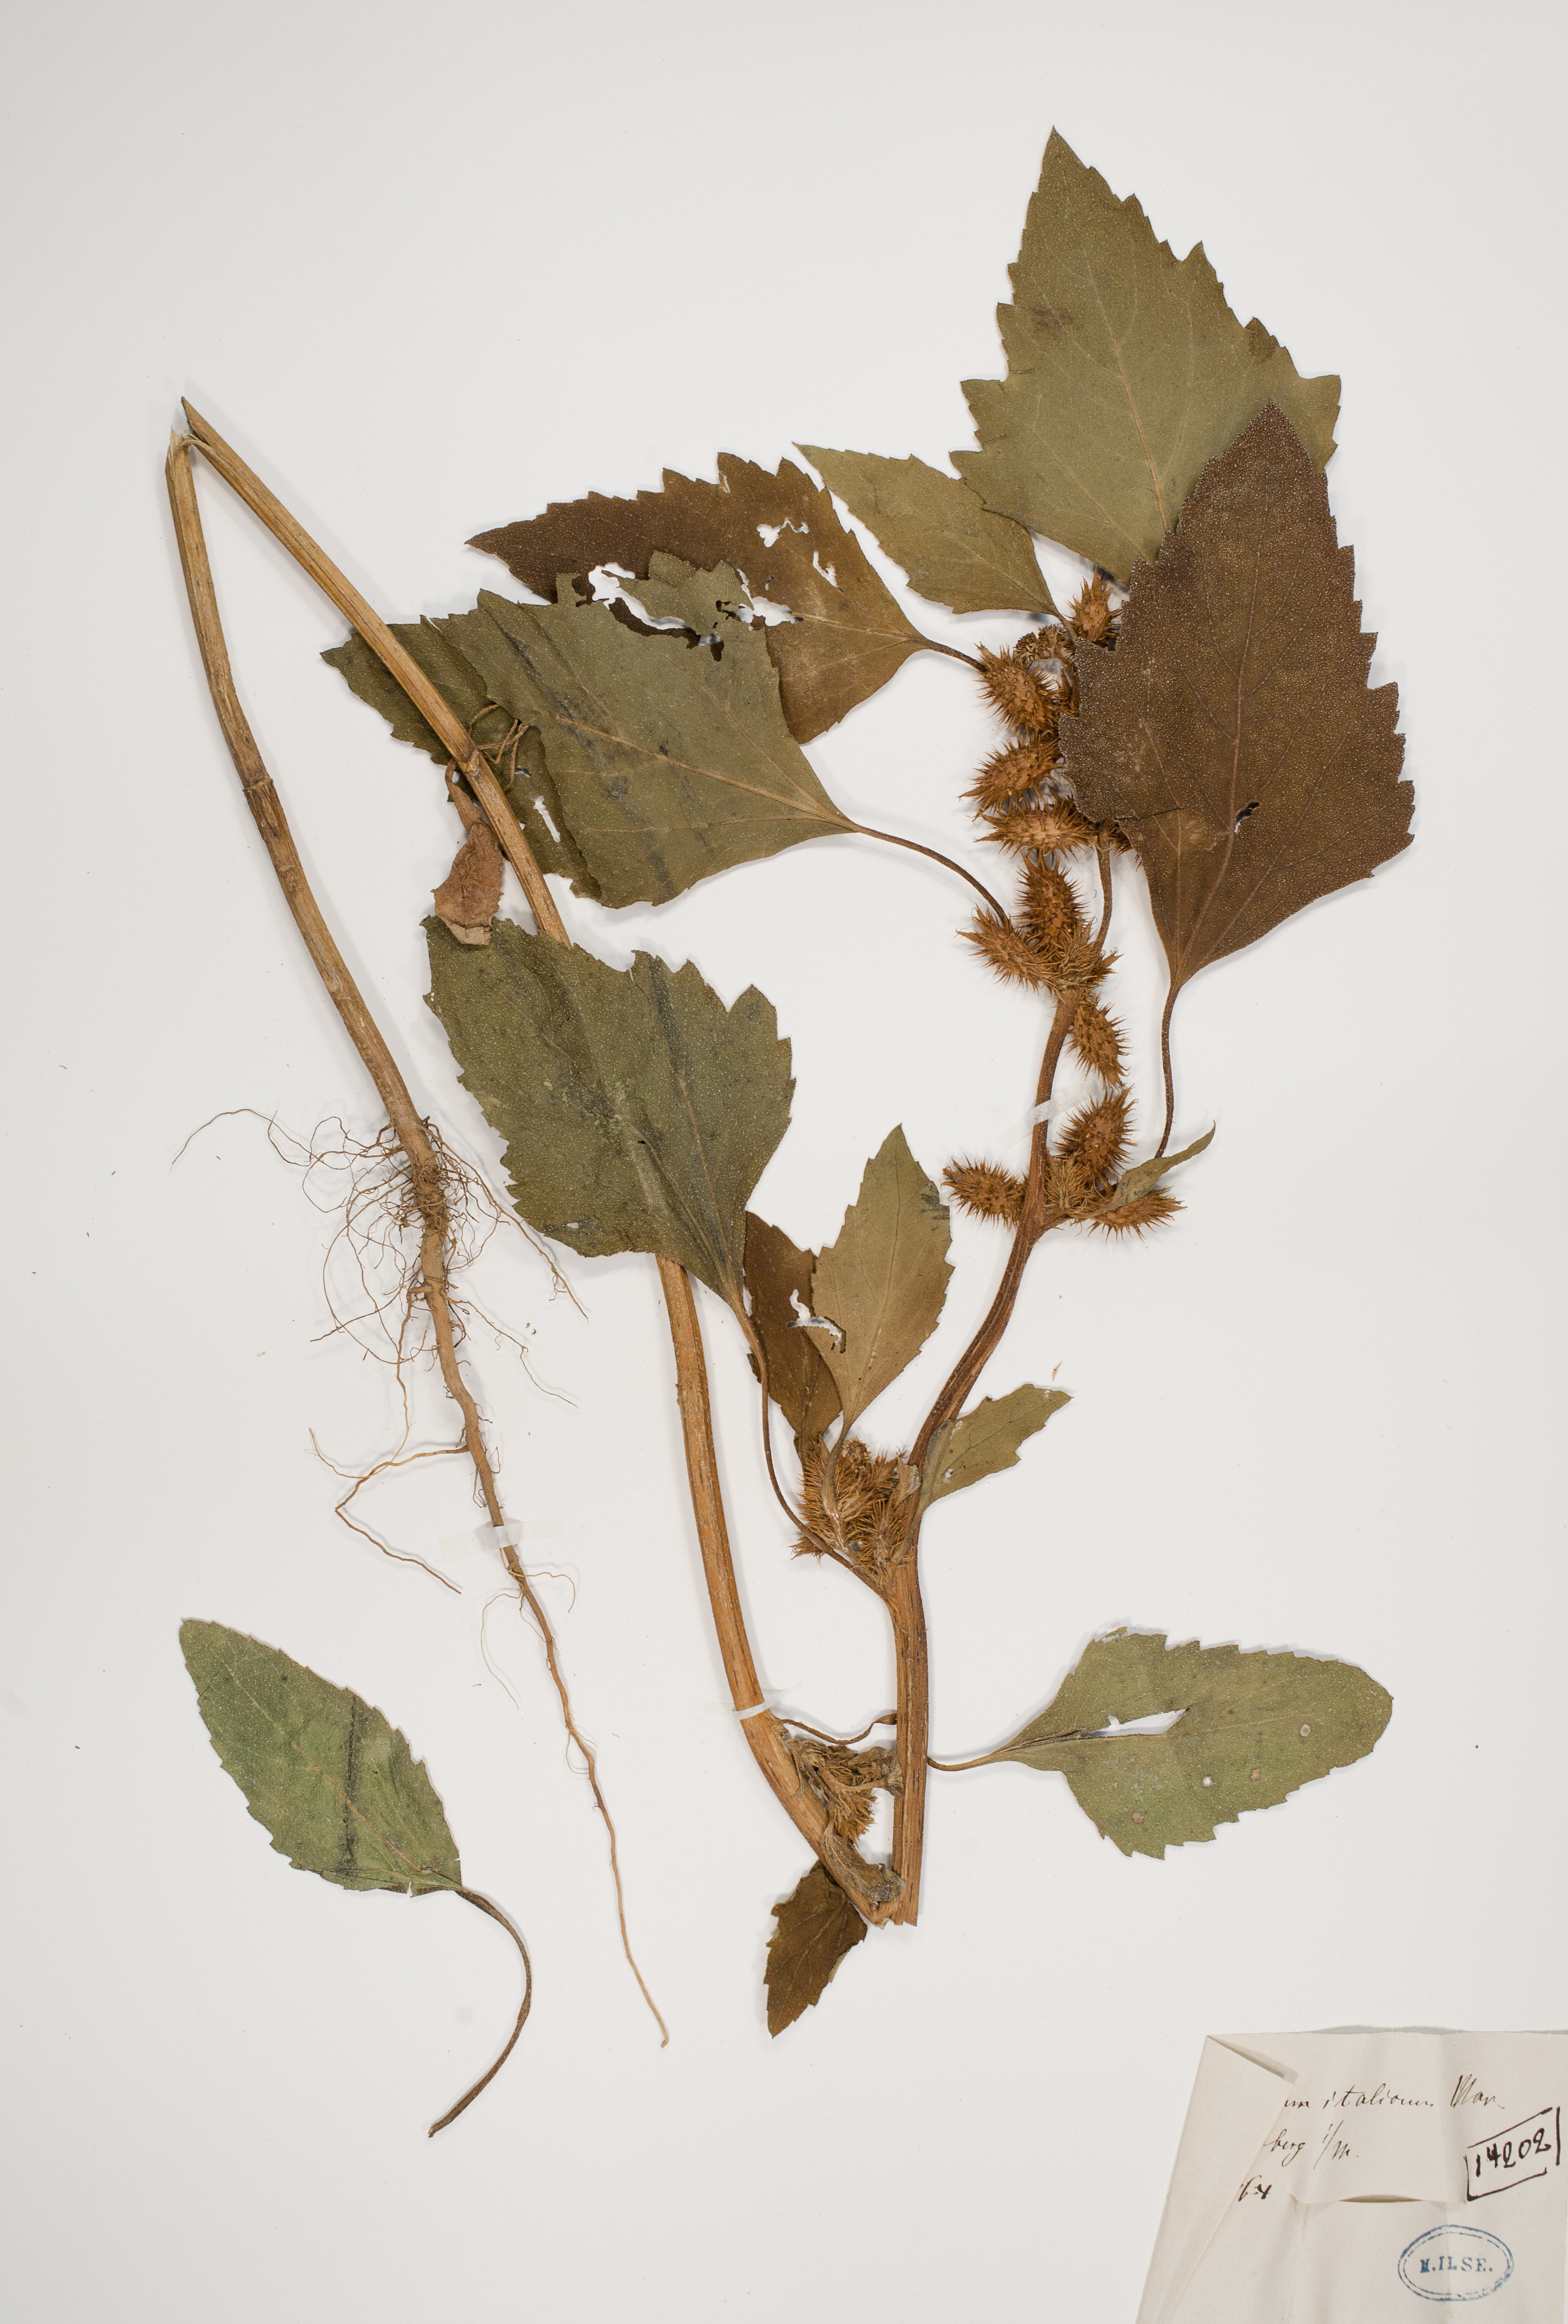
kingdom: Plantae
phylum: Tracheophyta
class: Magnoliopsida
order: Asterales
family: Asteraceae
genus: Xanthium
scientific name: Xanthium orientale
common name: Californian burr
